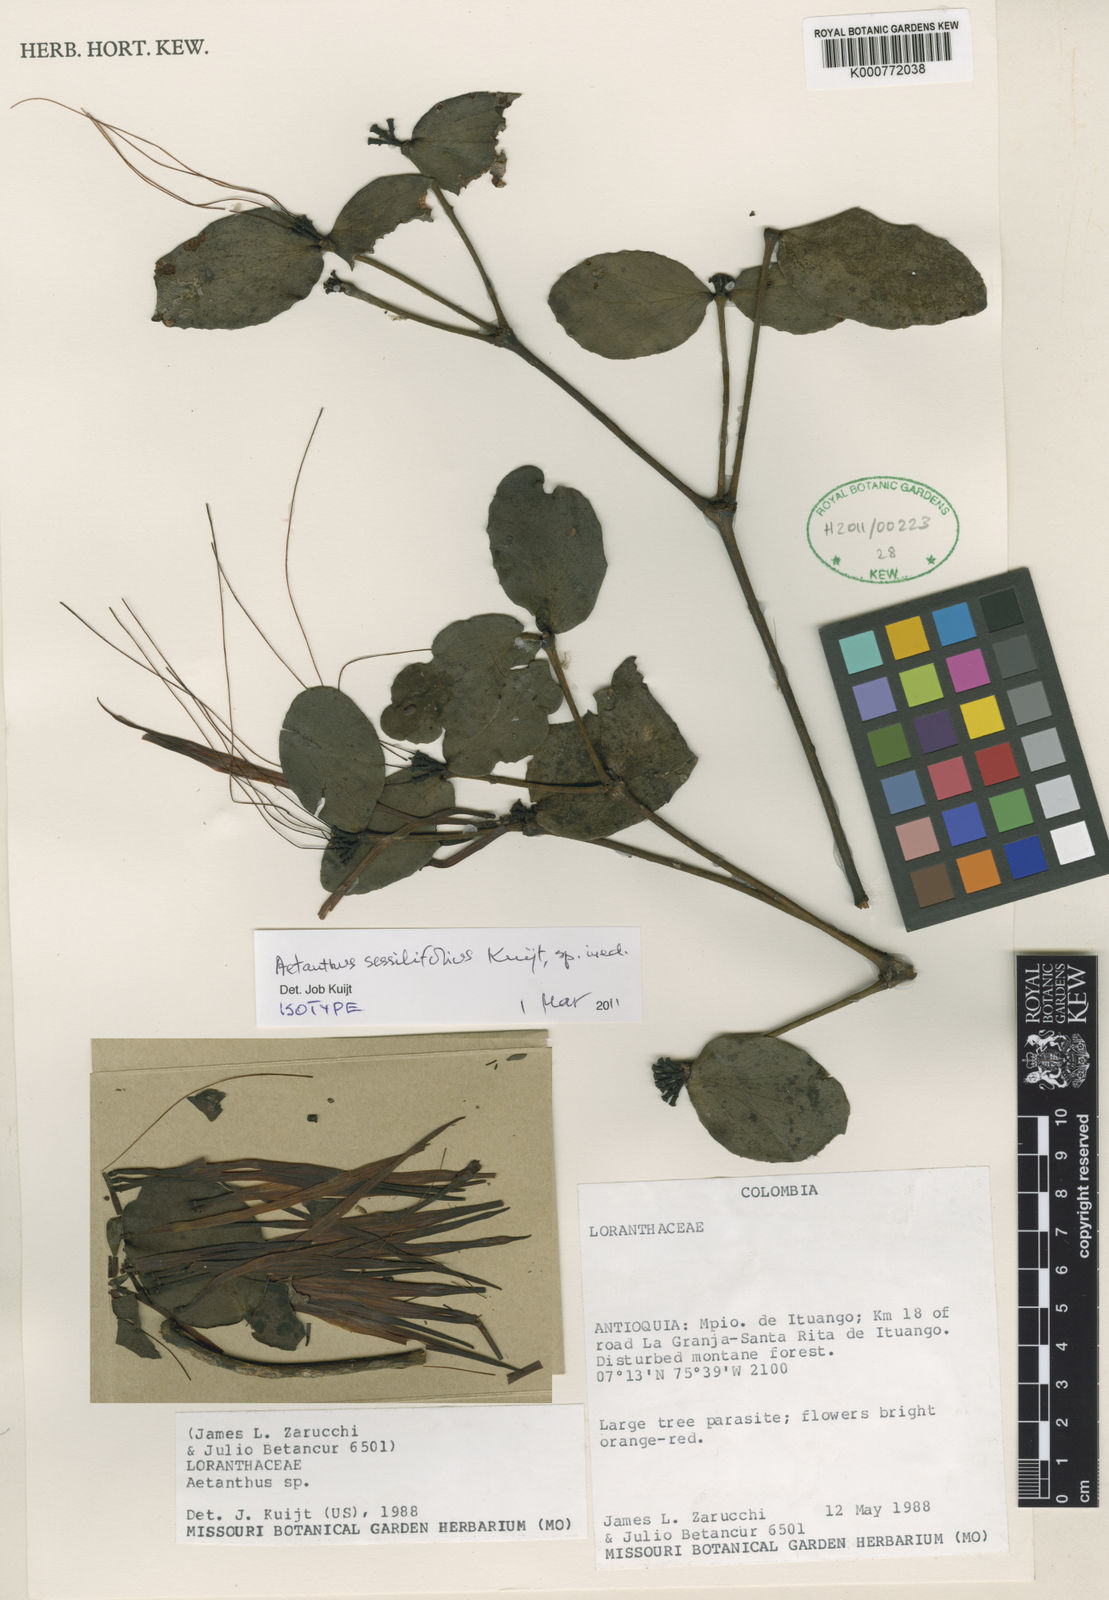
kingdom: Plantae
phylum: Tracheophyta
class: Magnoliopsida
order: Santalales
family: Loranthaceae
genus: Aetanthus
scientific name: Aetanthus sessilifolius
